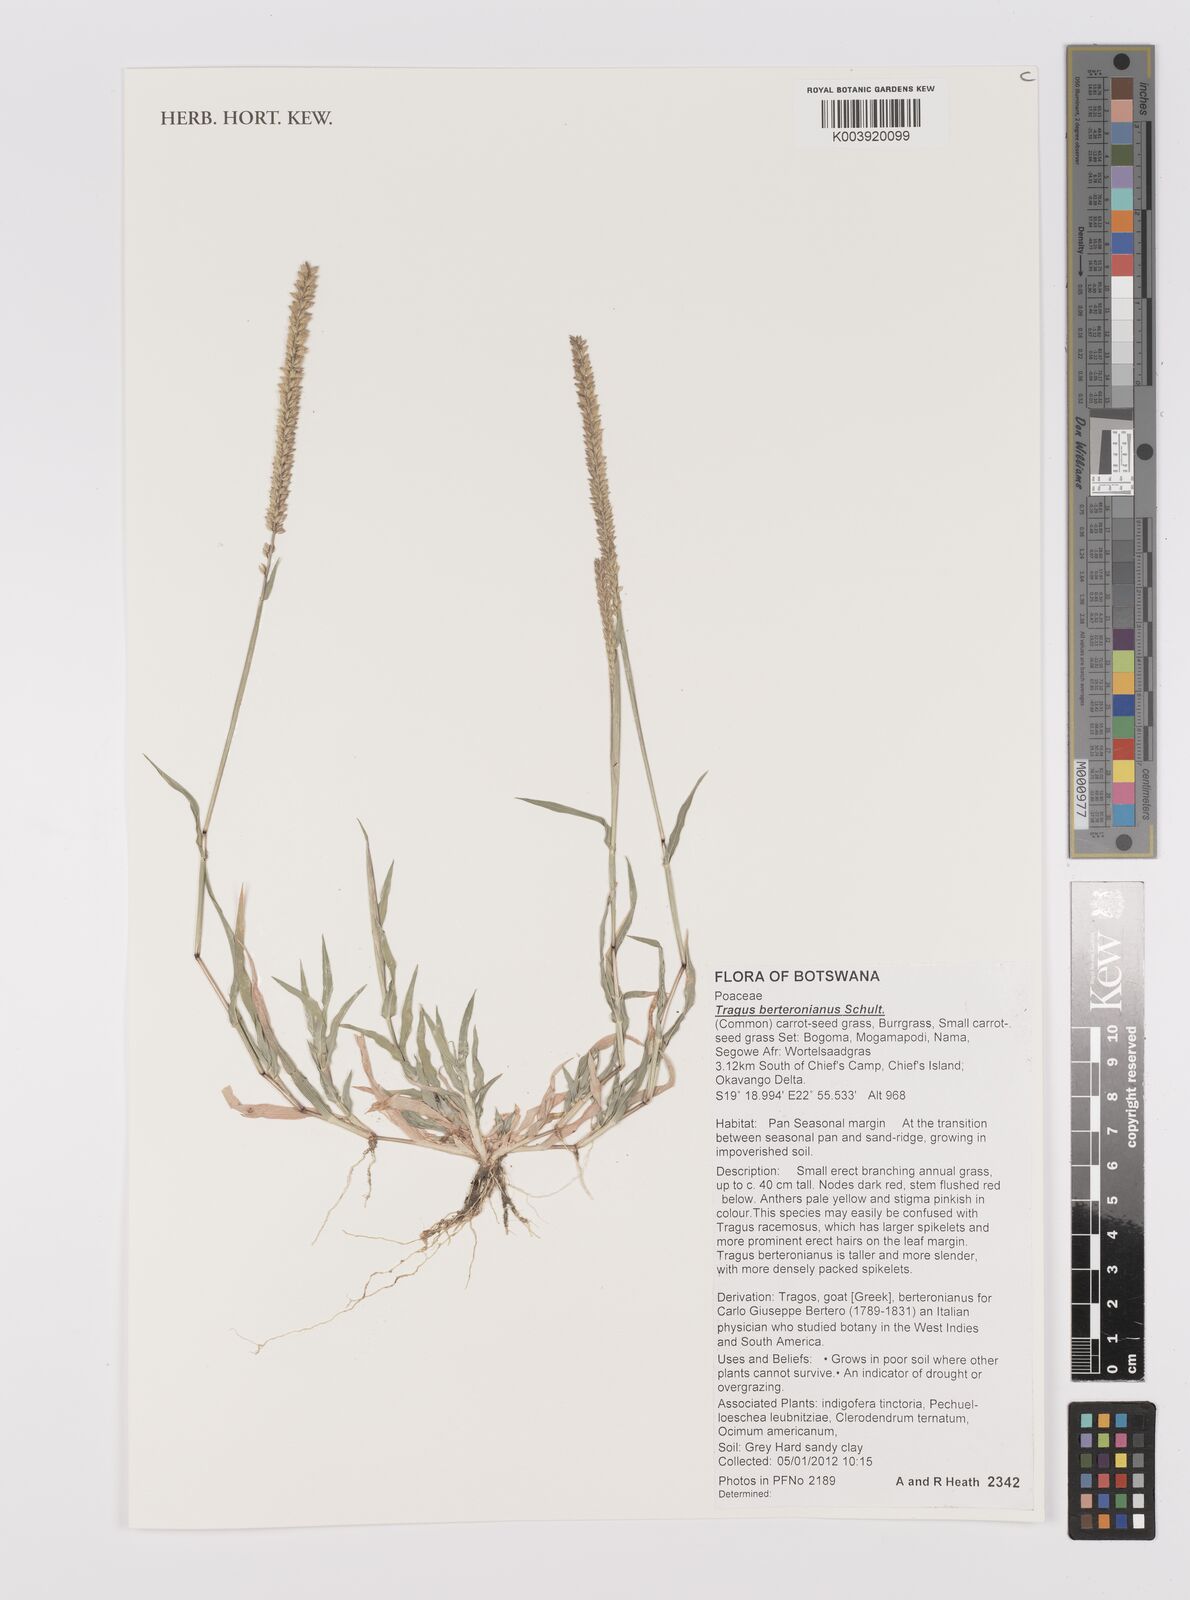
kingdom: Plantae
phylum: Tracheophyta
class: Liliopsida
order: Poales
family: Poaceae
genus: Tragus
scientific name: Tragus berteronianus
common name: African bur-grass
